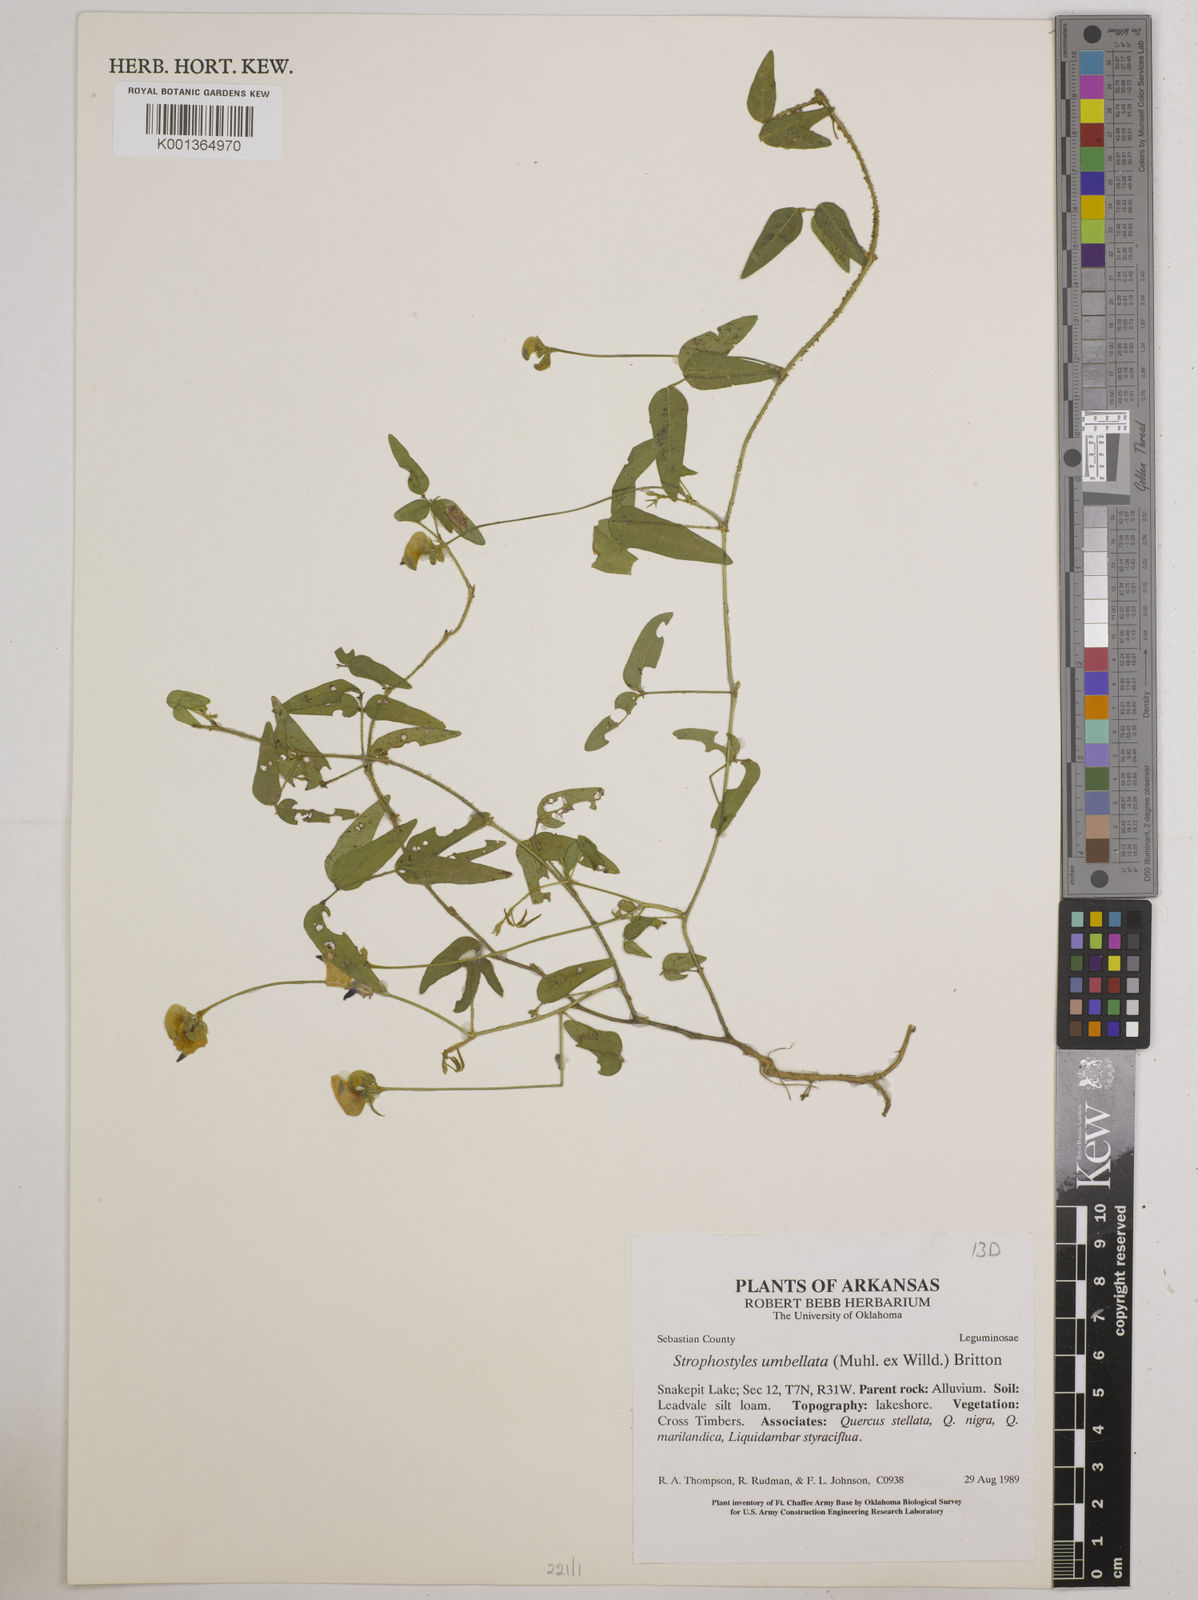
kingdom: Plantae
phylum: Tracheophyta
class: Magnoliopsida
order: Fabales
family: Fabaceae
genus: Strophostyles
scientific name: Strophostyles umbellata
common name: Perennial wild bean
